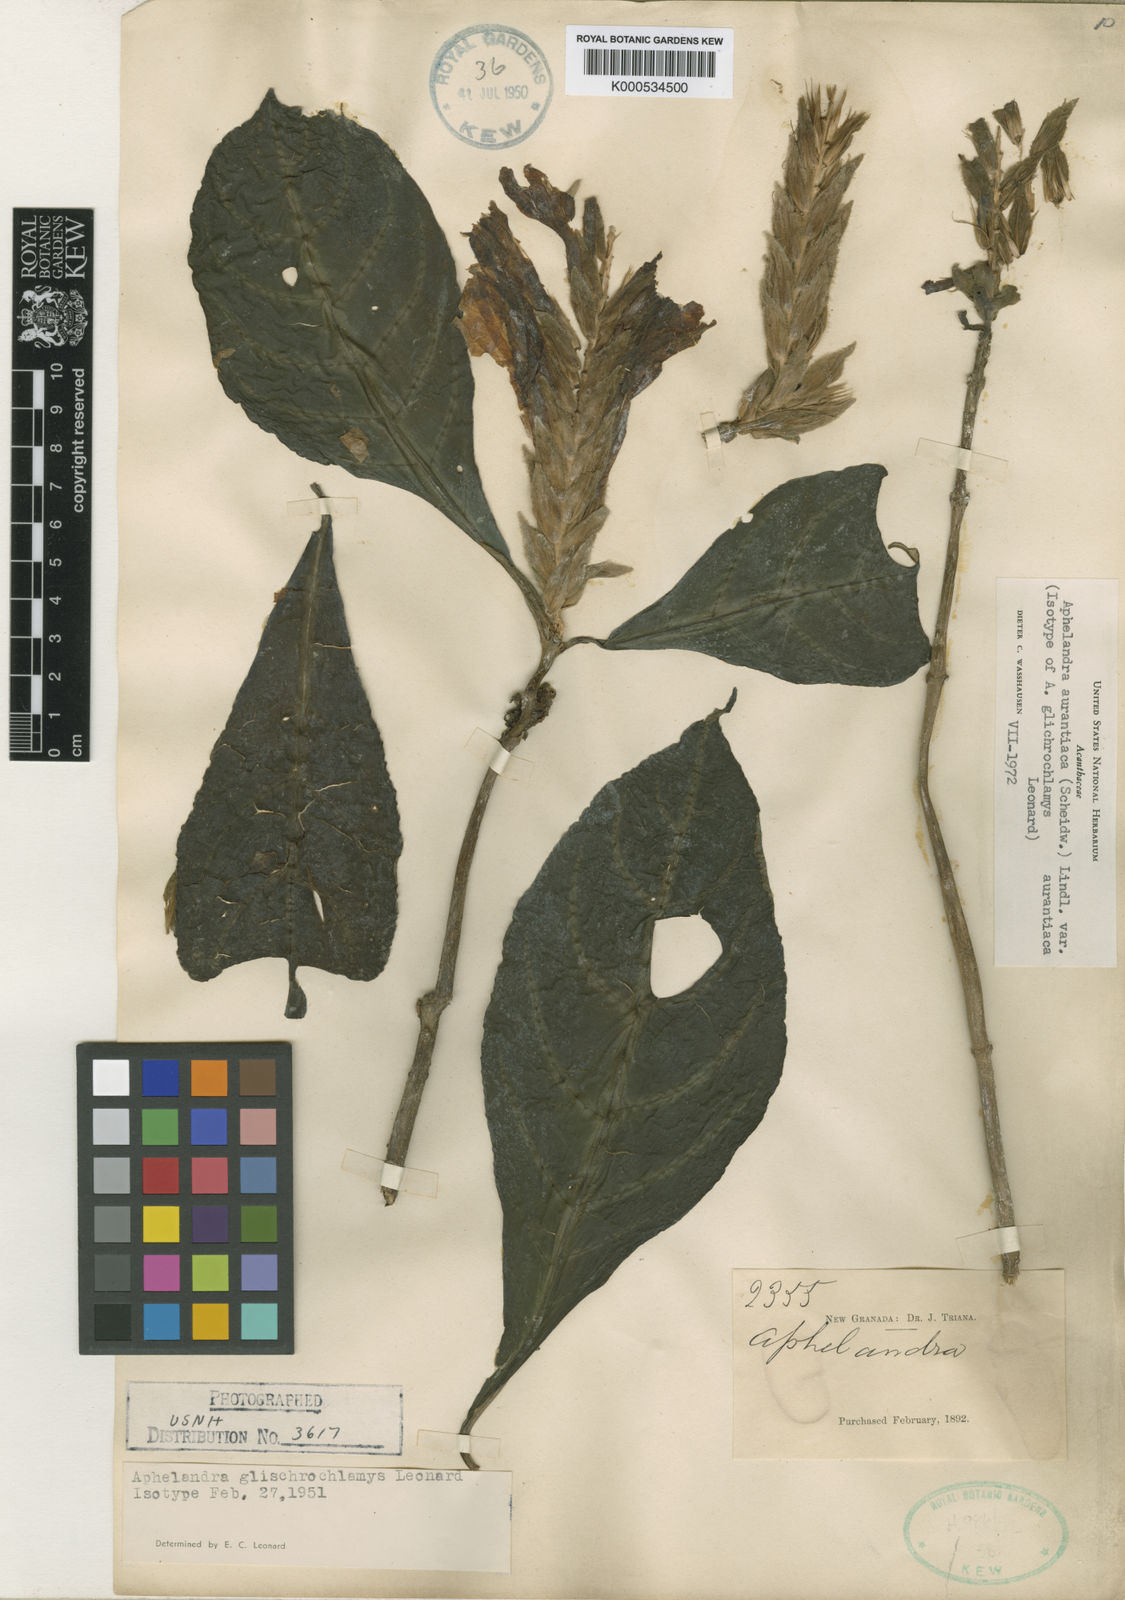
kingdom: Plantae
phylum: Tracheophyta
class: Magnoliopsida
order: Lamiales
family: Acanthaceae
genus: Aphelandra
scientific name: Aphelandra aurantiaca
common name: Fiery spike
